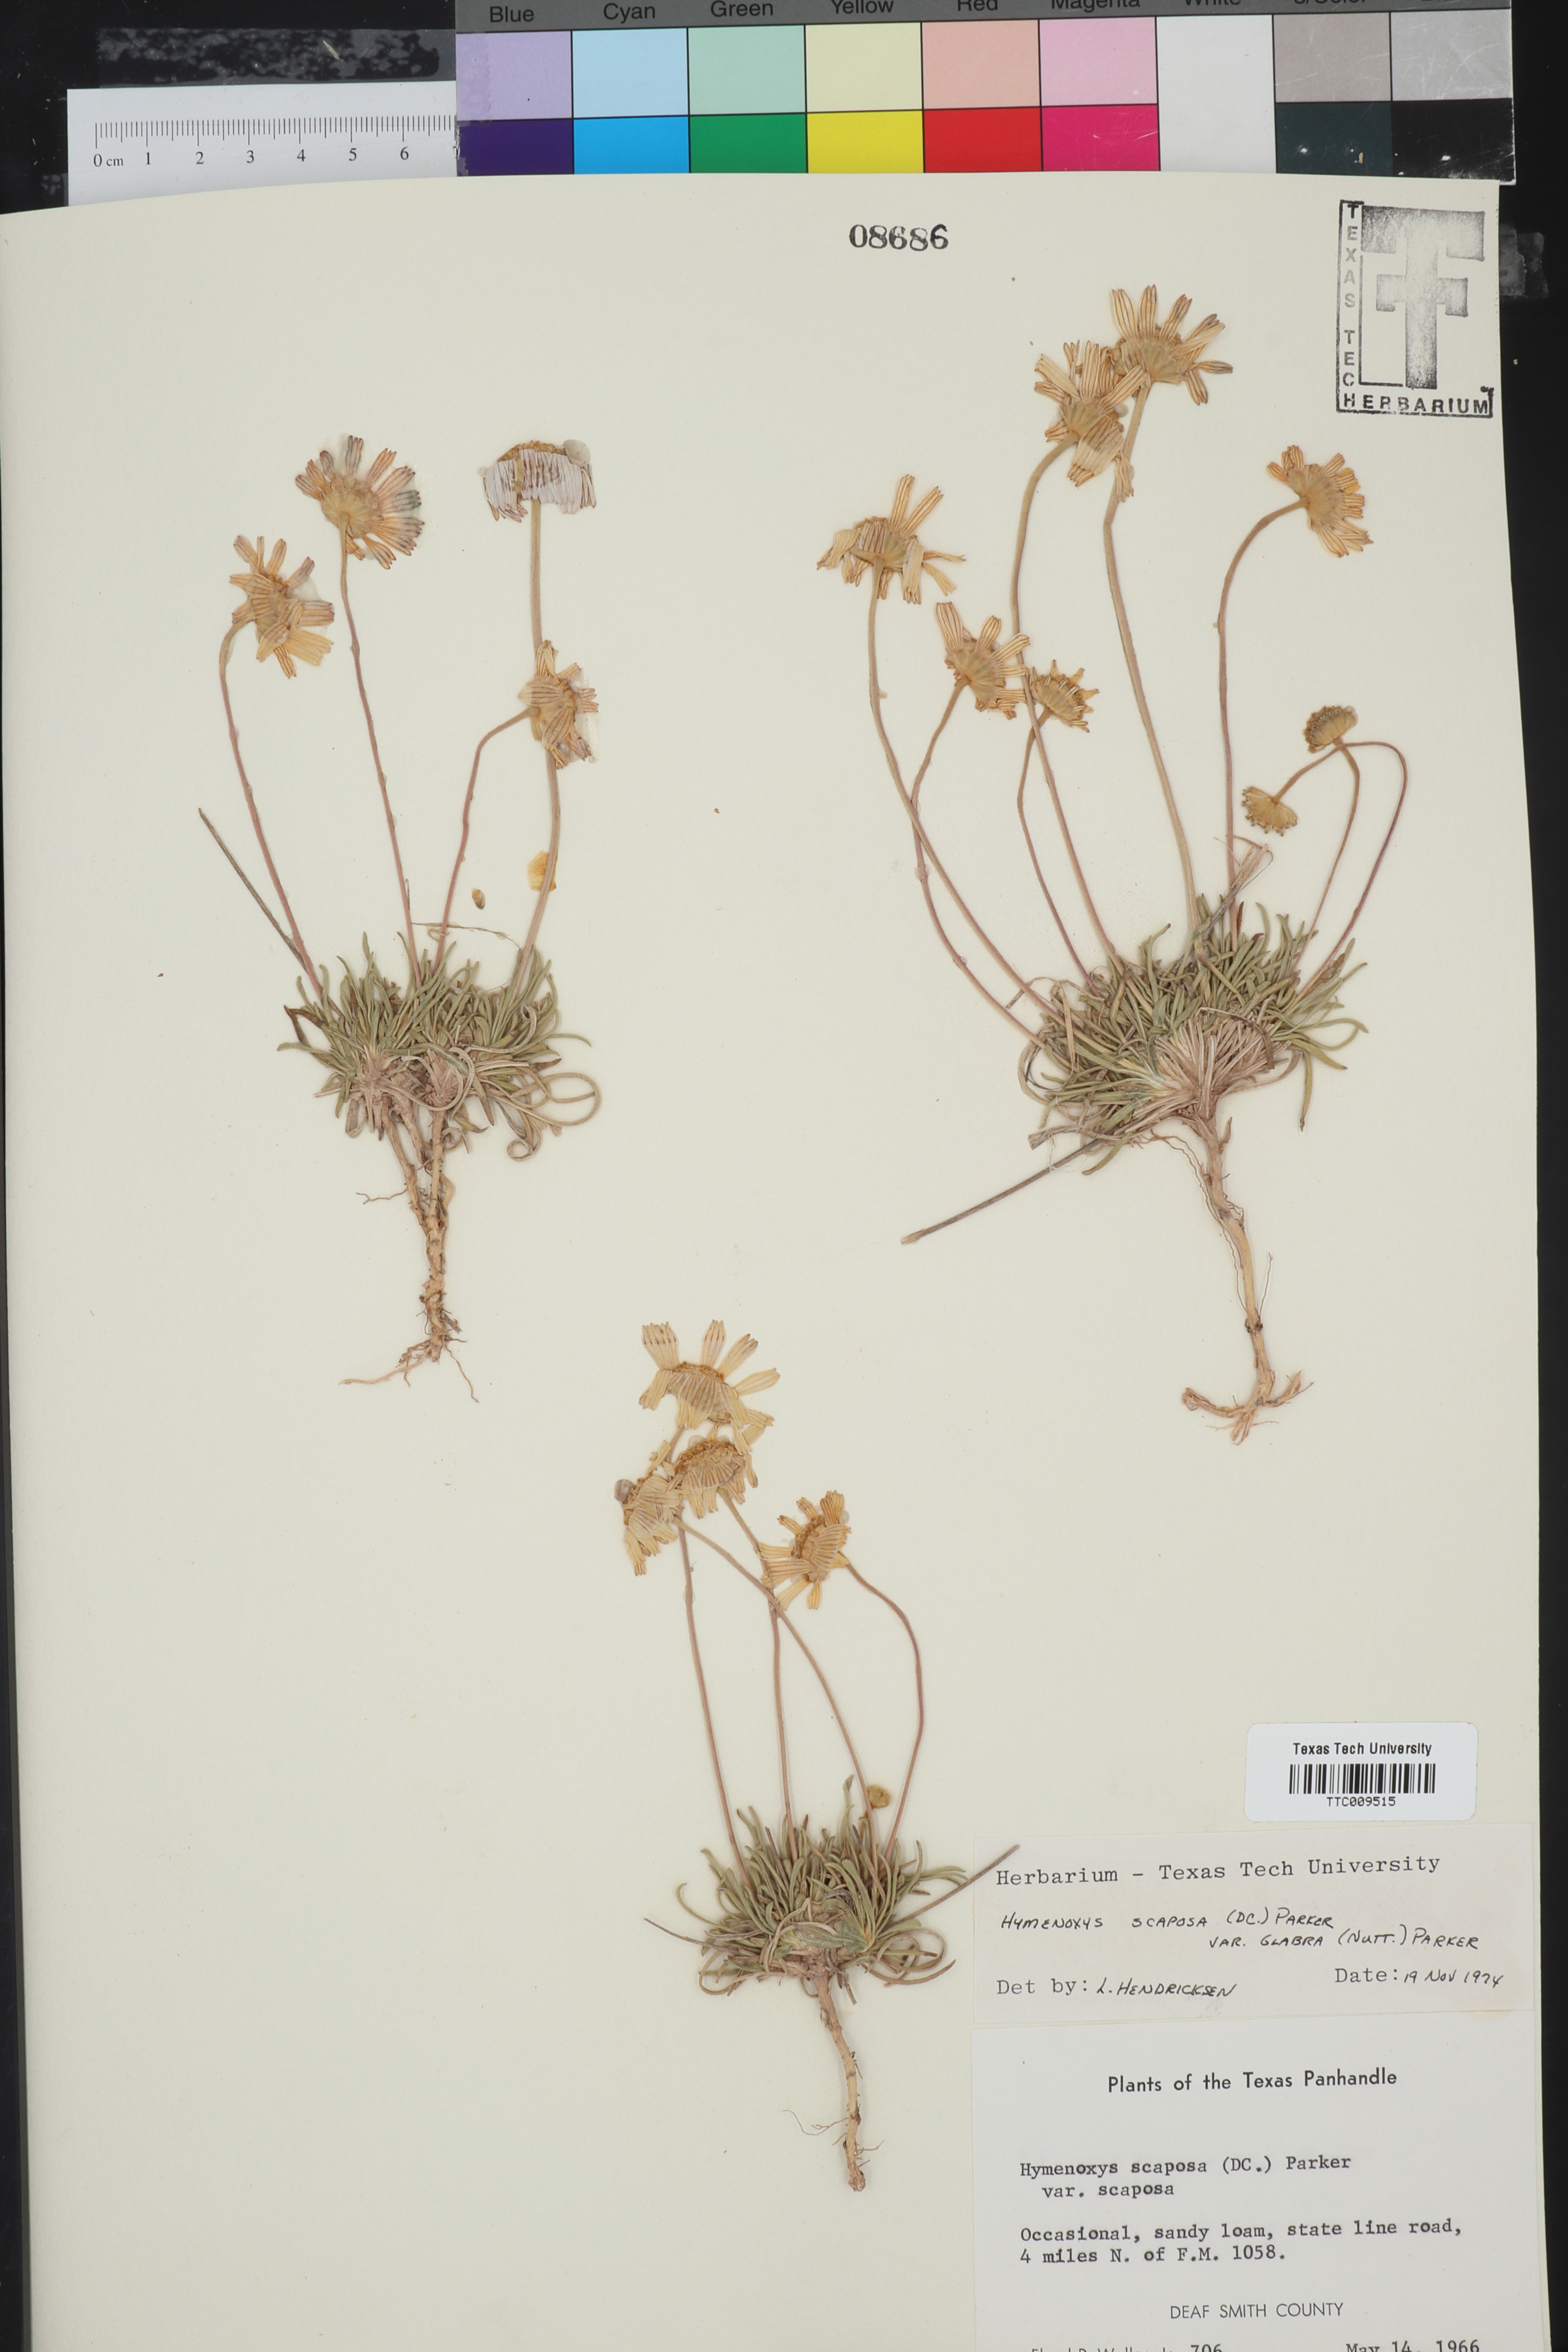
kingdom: Plantae
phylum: Tracheophyta
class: Magnoliopsida
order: Asterales
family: Asteraceae
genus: Tetraneuris
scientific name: Tetraneuris scaposa
